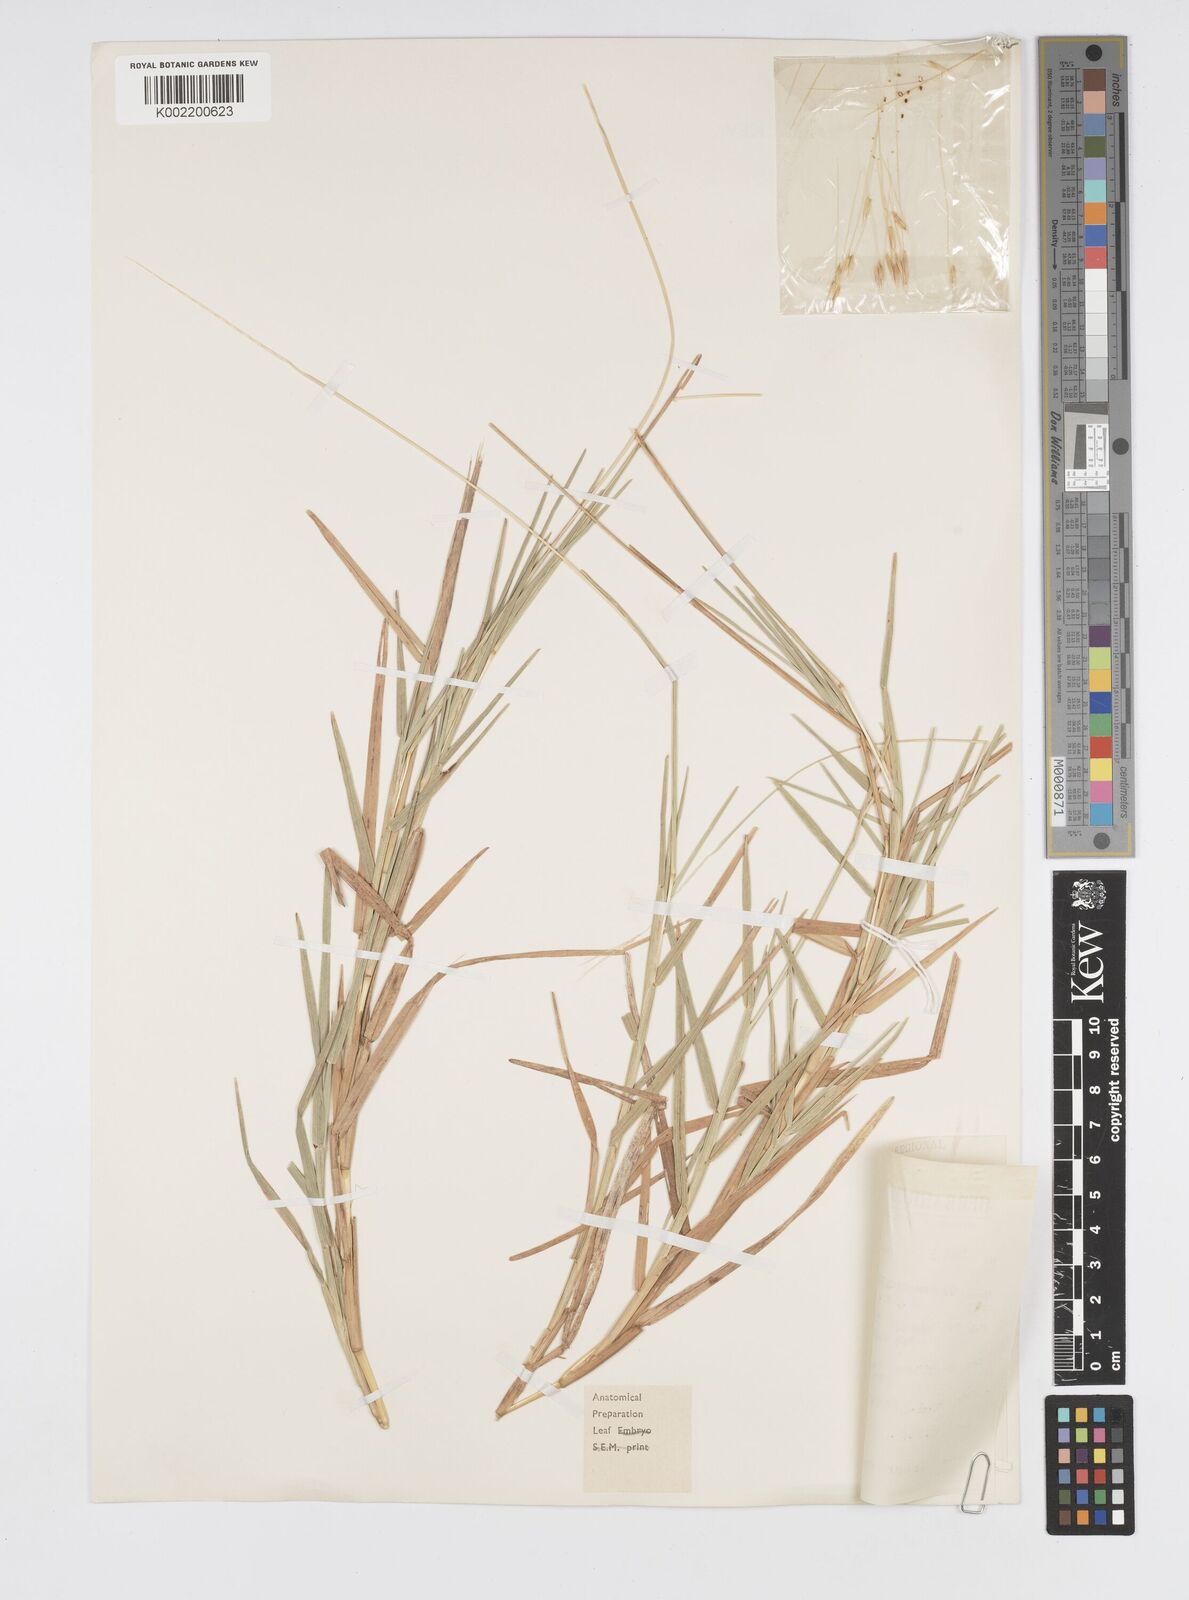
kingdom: Plantae
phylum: Tracheophyta
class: Liliopsida
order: Poales
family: Poaceae
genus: Chamaeraphis
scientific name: Chamaeraphis hordeacea
